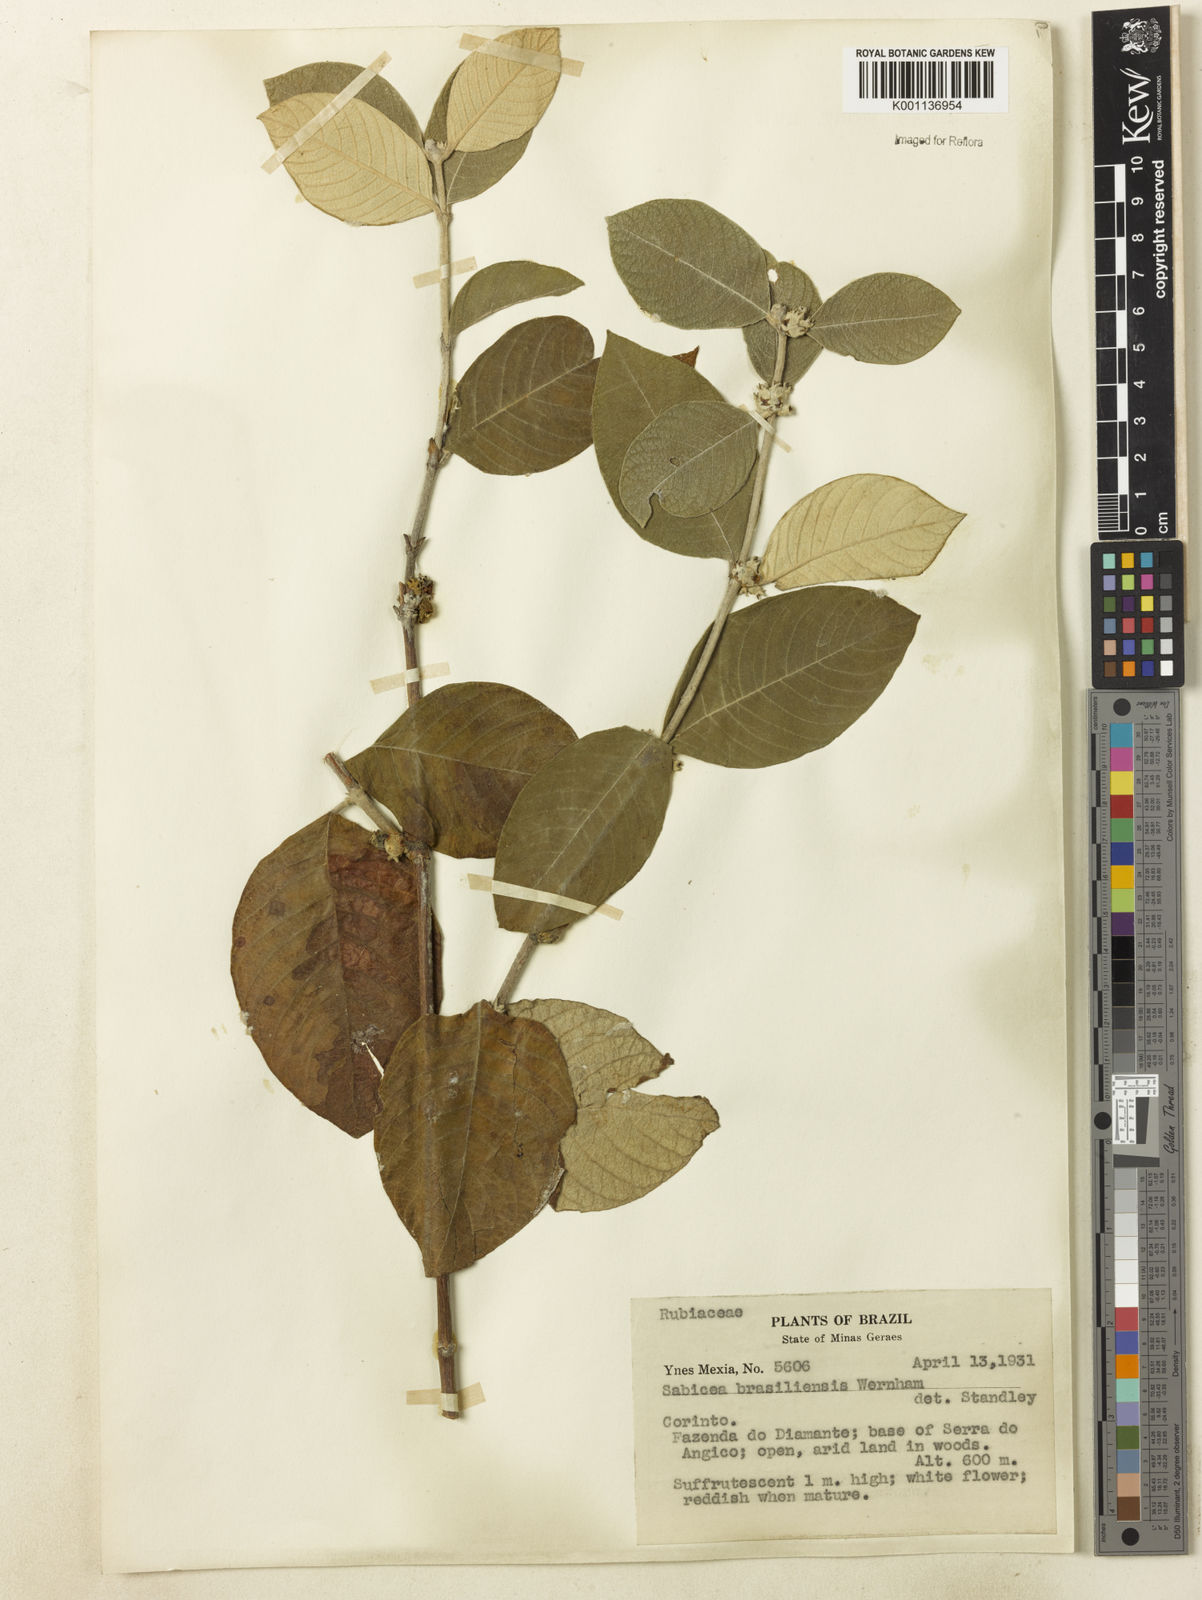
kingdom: Plantae
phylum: Tracheophyta
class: Magnoliopsida
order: Gentianales
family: Rubiaceae
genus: Sabicea
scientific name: Sabicea brasiliensis
